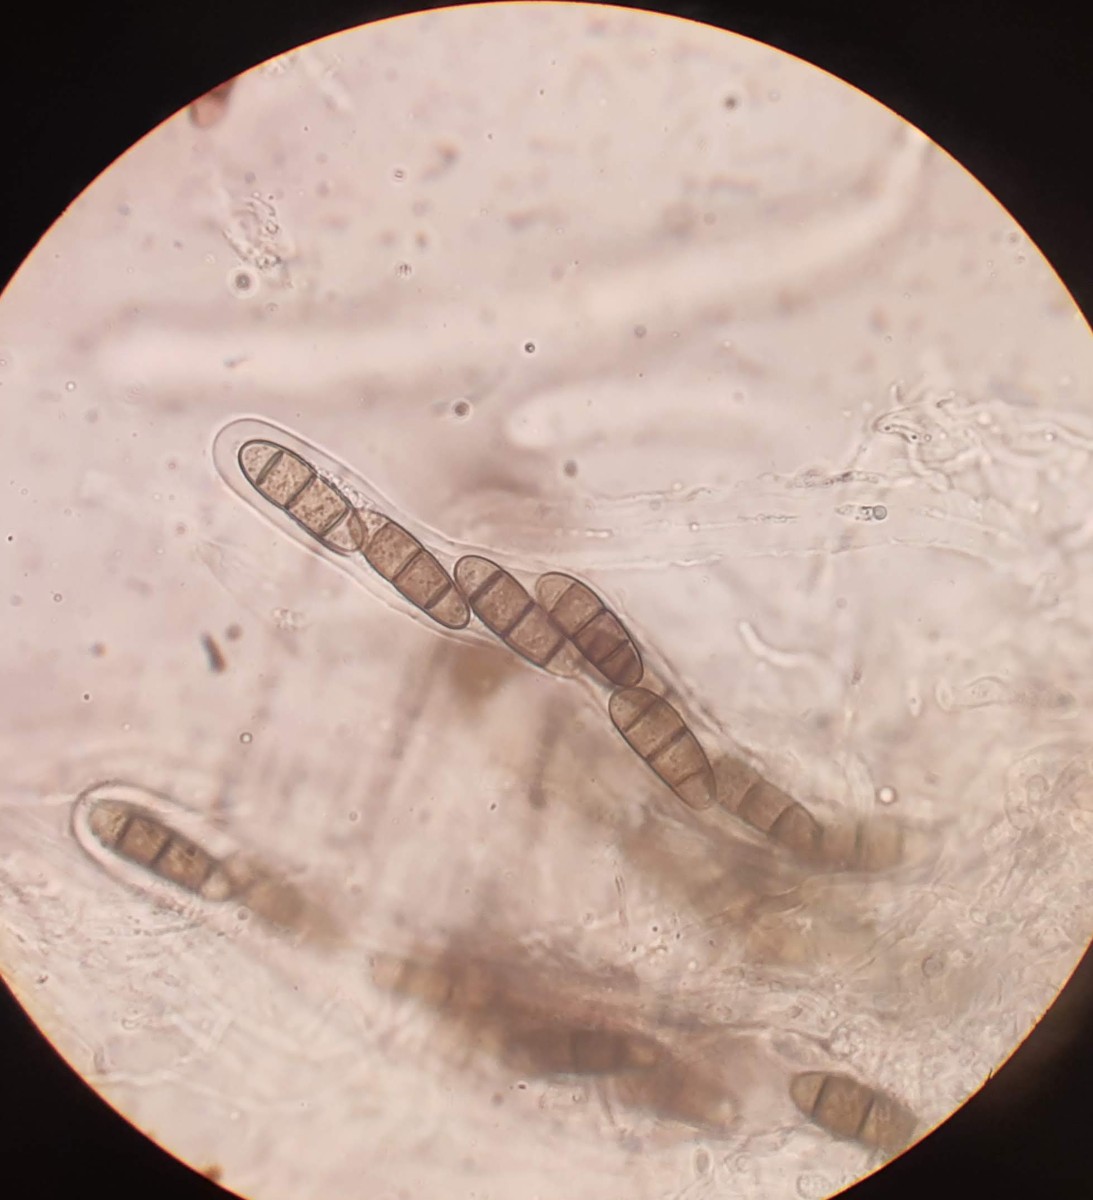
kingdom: Fungi
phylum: Ascomycota
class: Dothideomycetes
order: Hysteriales
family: Hysteriaceae
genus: Hysterium
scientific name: Hysterium pulicare
